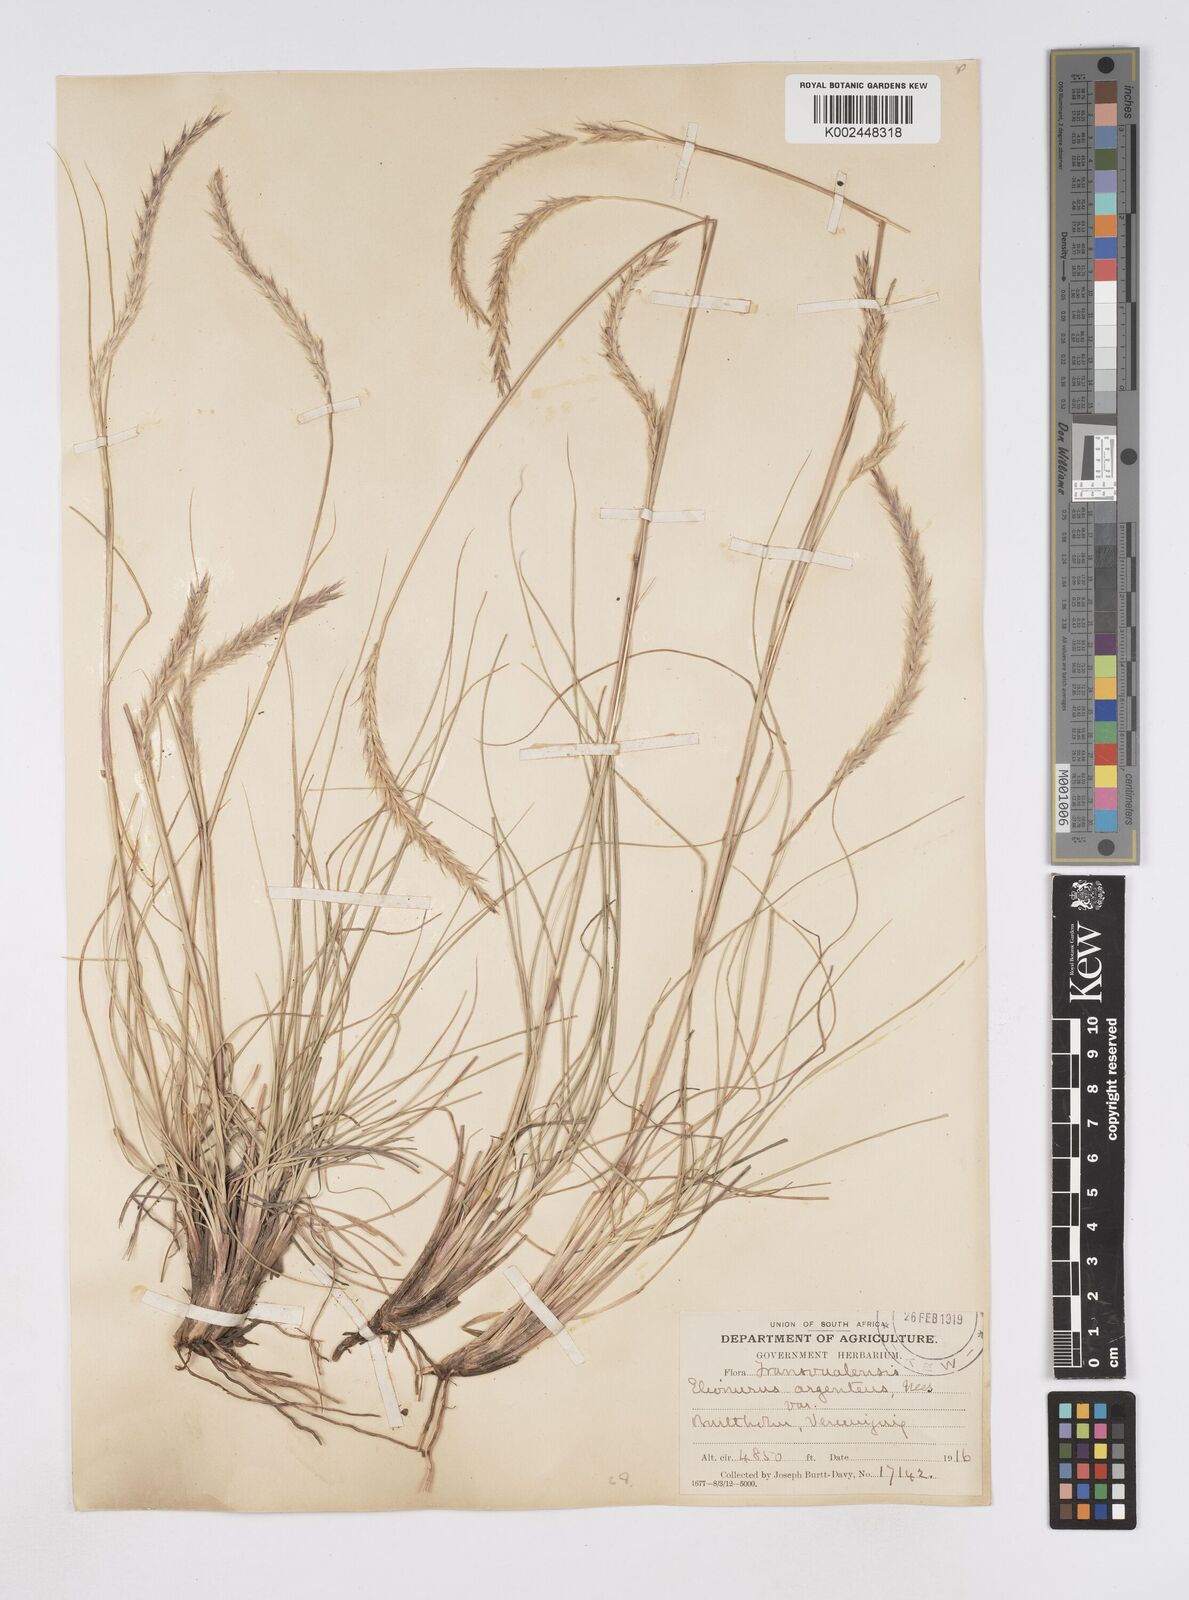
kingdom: Plantae
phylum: Tracheophyta
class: Liliopsida
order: Poales
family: Poaceae
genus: Elionurus
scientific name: Elionurus muticus
